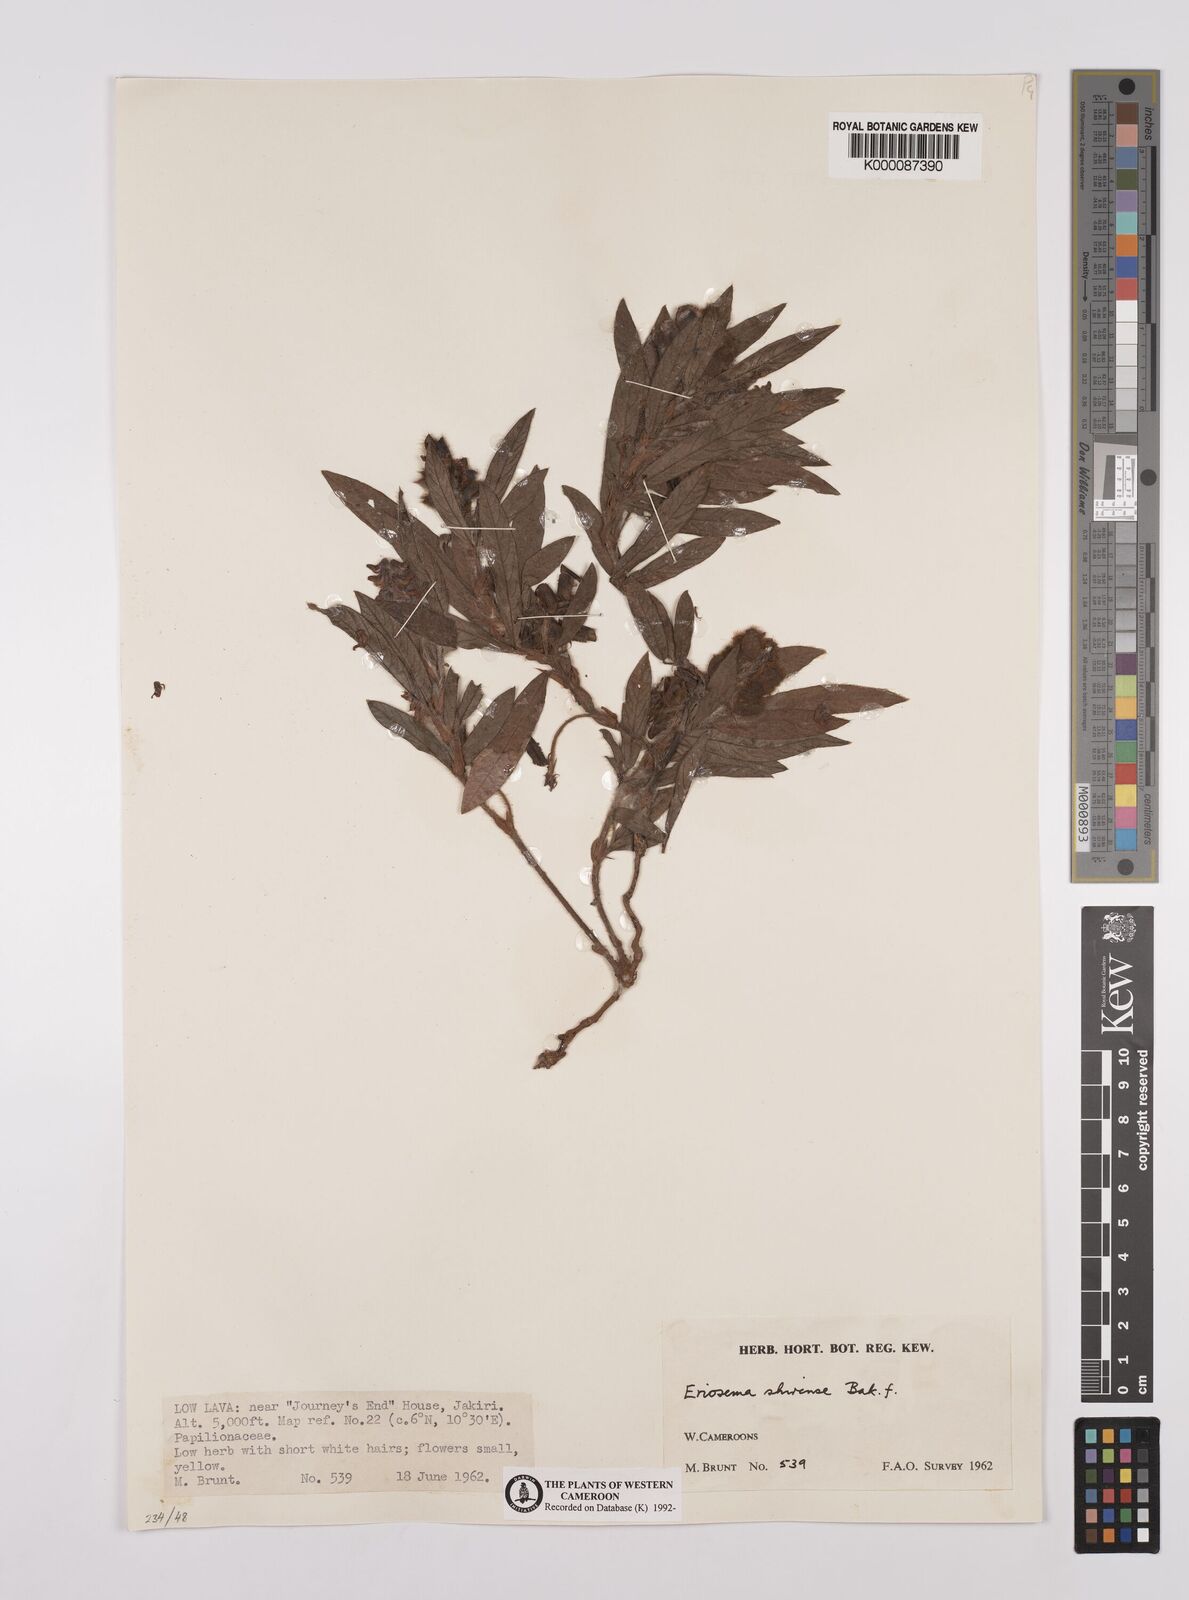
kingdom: Plantae
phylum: Tracheophyta
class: Magnoliopsida
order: Fabales
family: Fabaceae
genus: Eriosema
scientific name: Eriosema shirense
